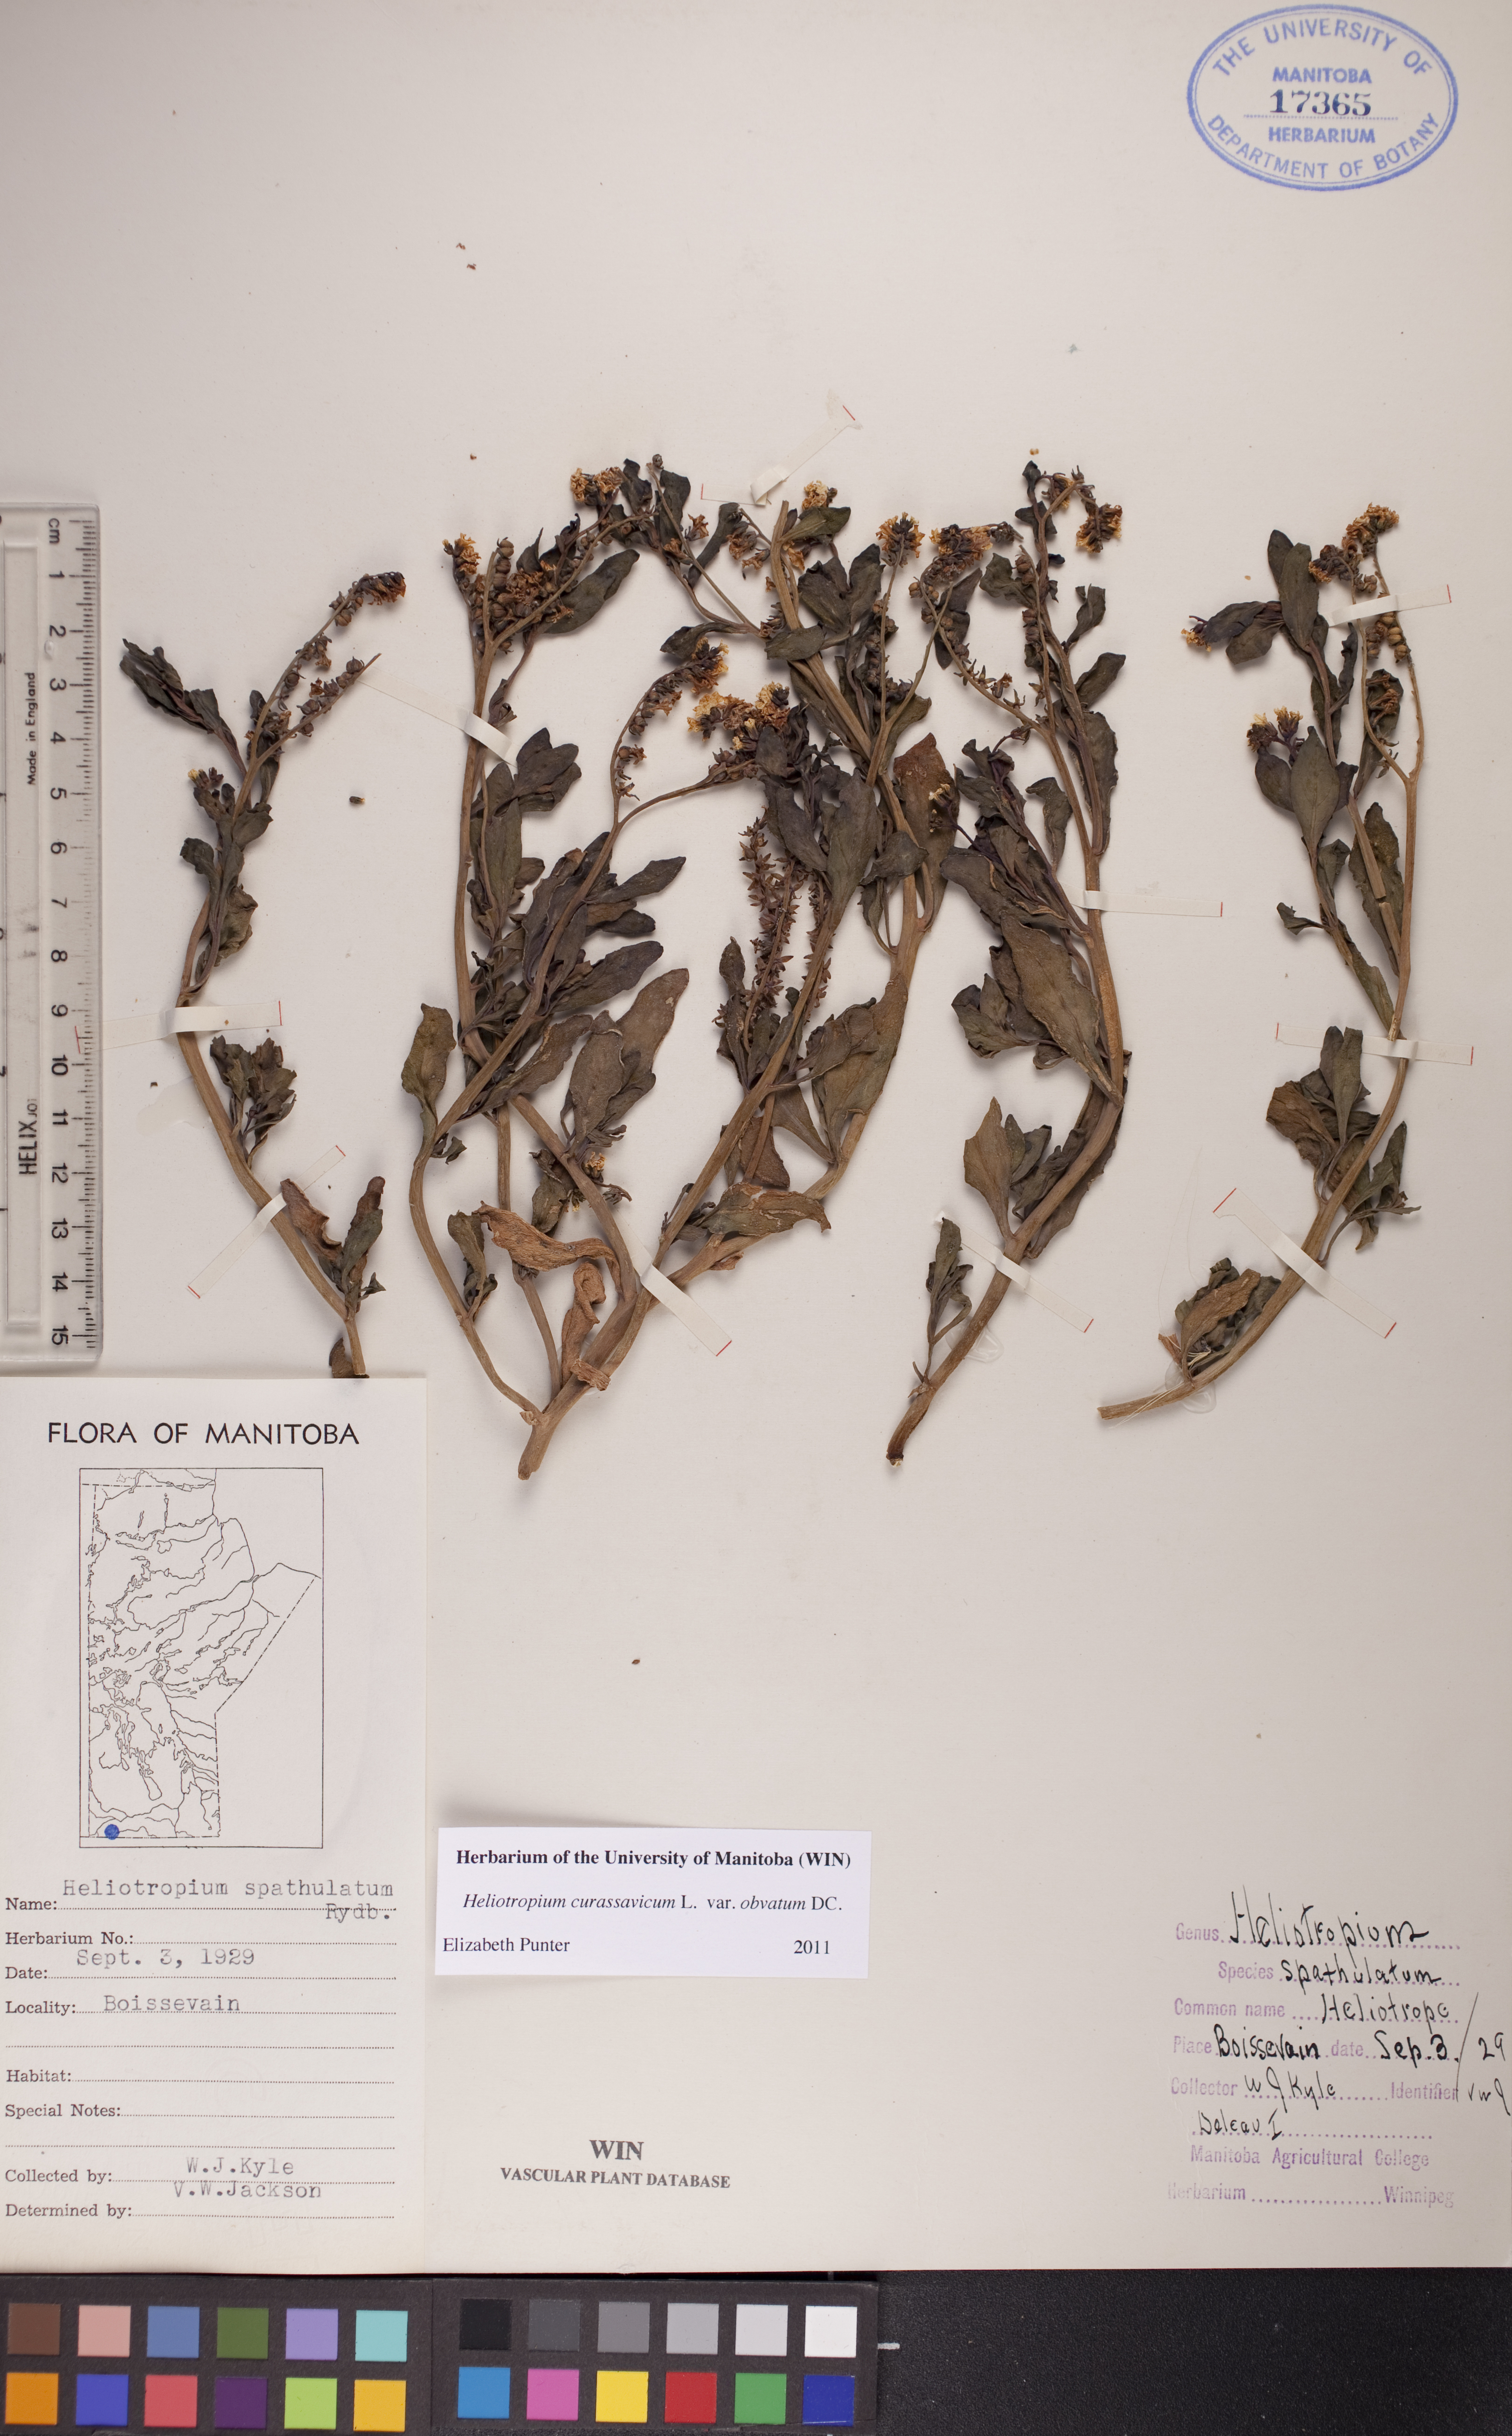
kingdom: Plantae
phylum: Tracheophyta
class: Magnoliopsida
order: Boraginales
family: Heliotropiaceae
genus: Heliotropium
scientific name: Heliotropium curassavicum
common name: Seaside heliotrope
